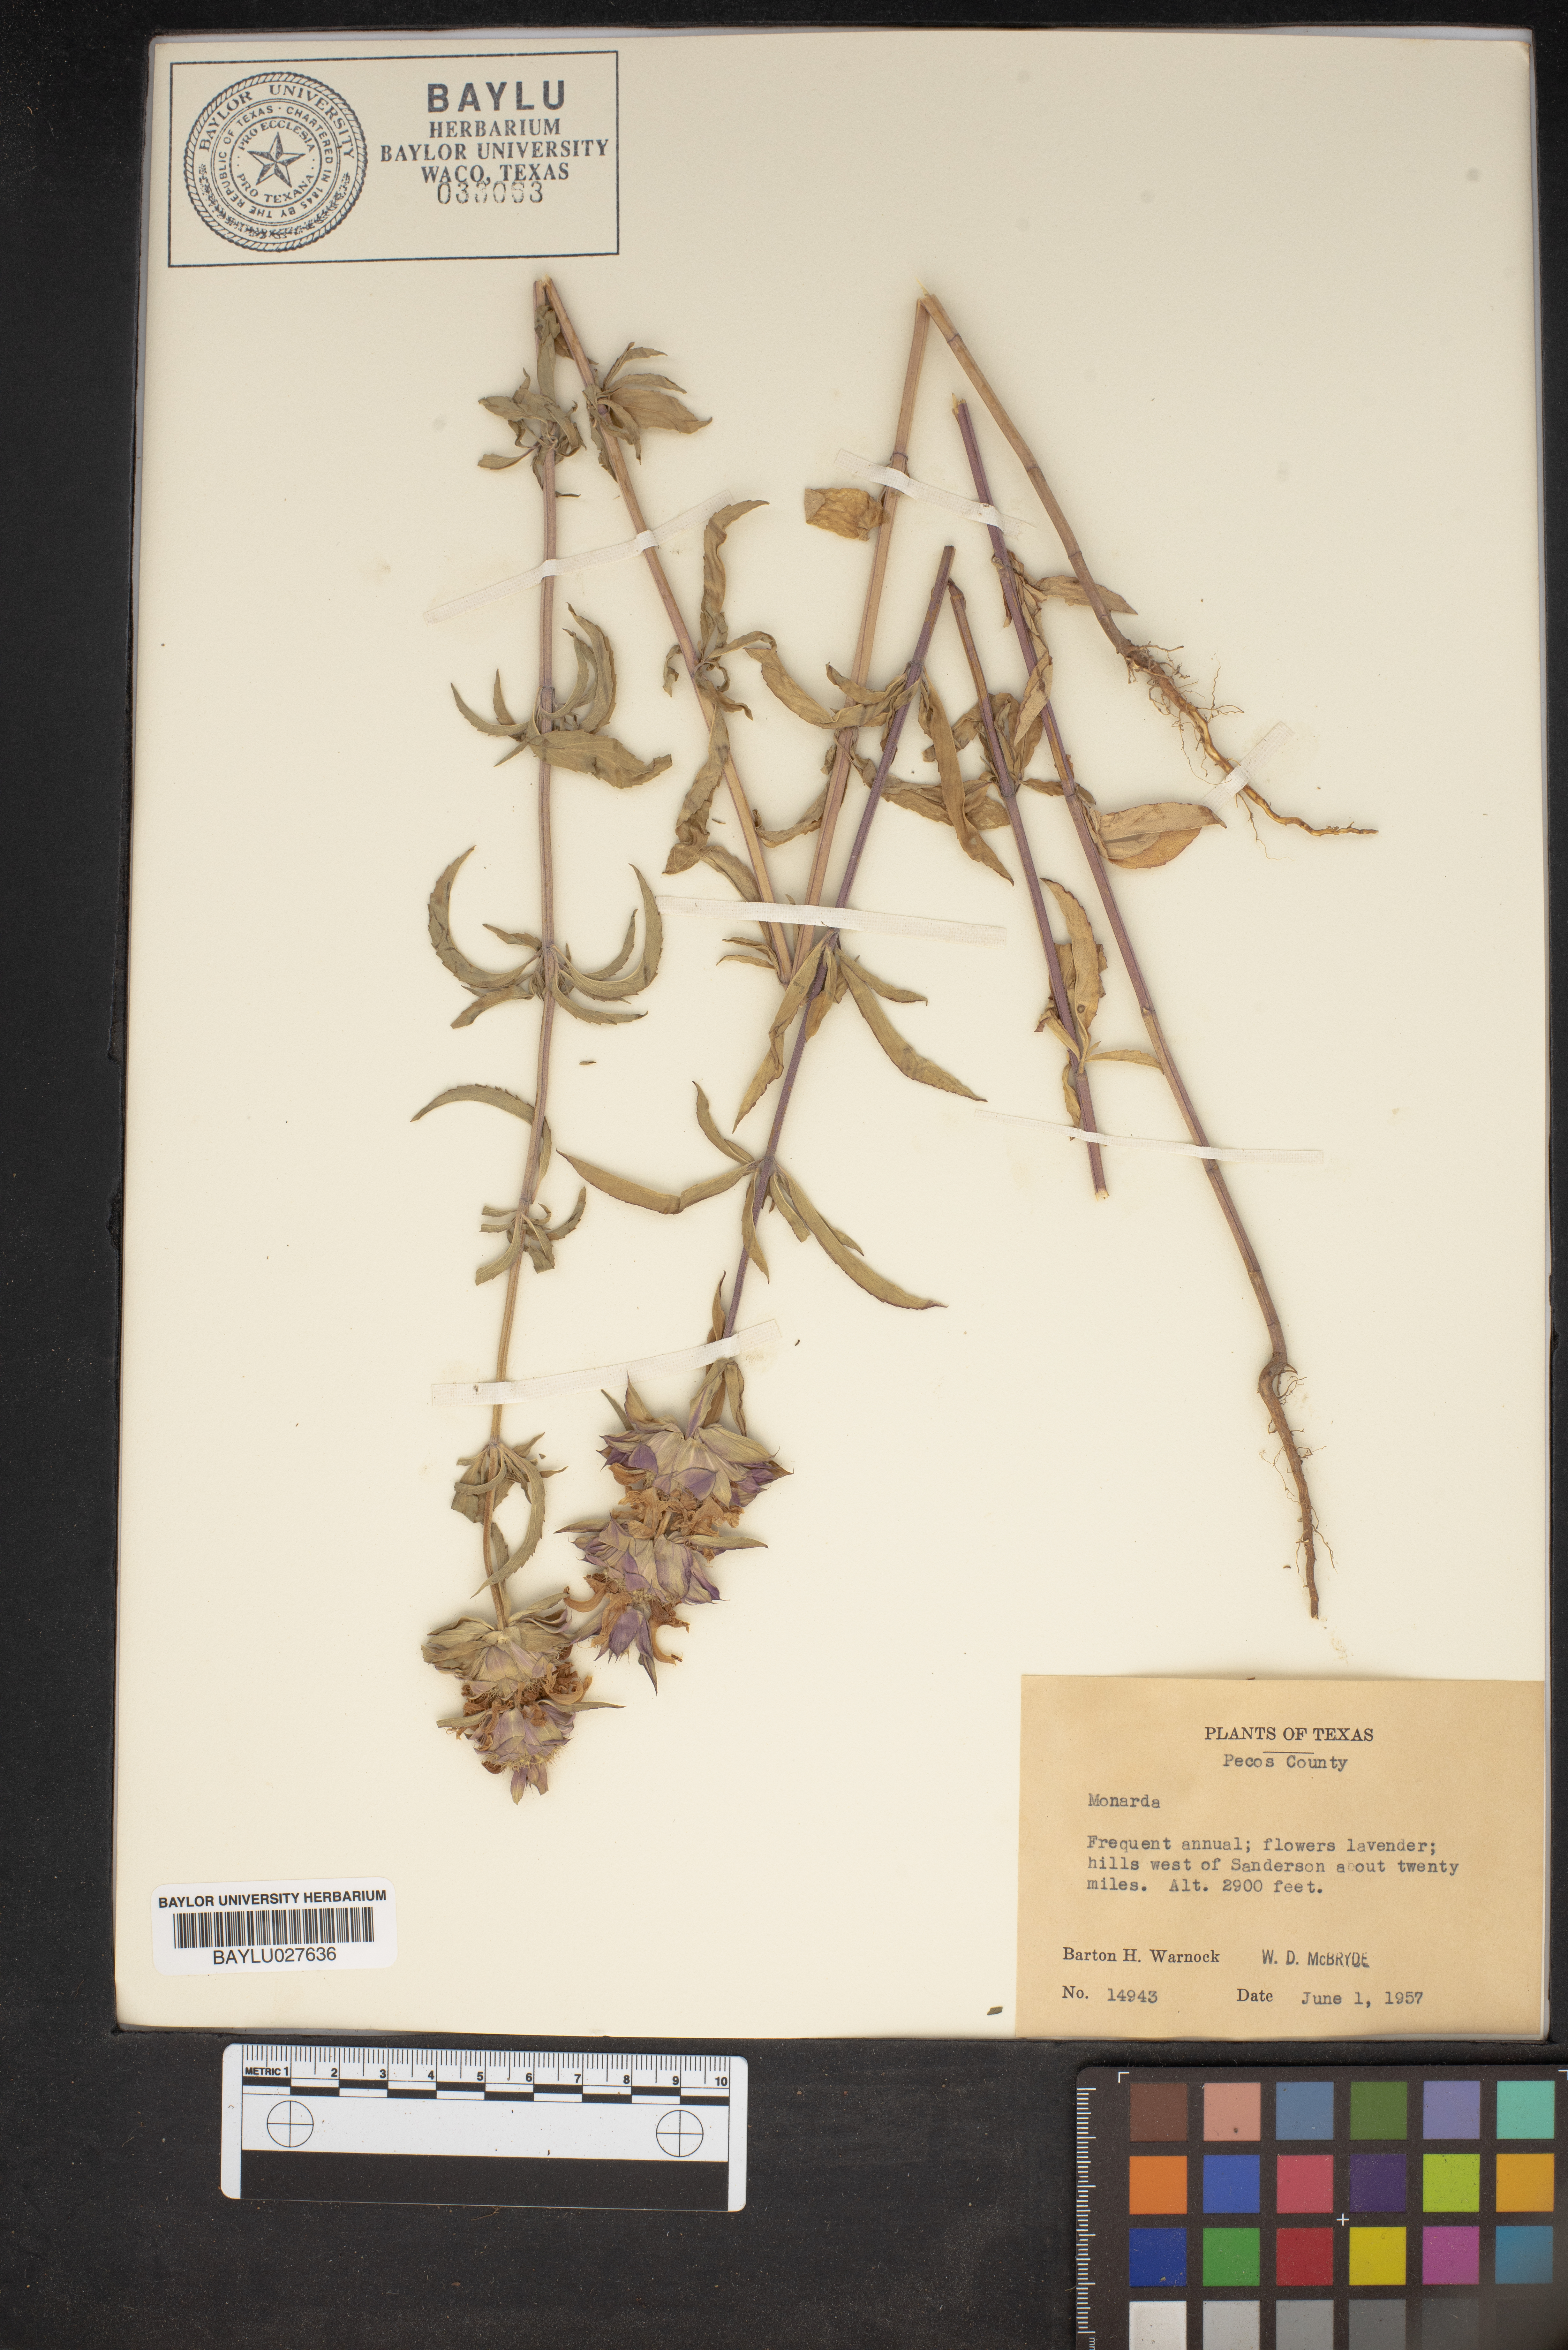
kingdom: Plantae
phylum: Tracheophyta
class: Magnoliopsida
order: Lamiales
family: Lamiaceae
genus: Monarda
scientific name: Monarda
